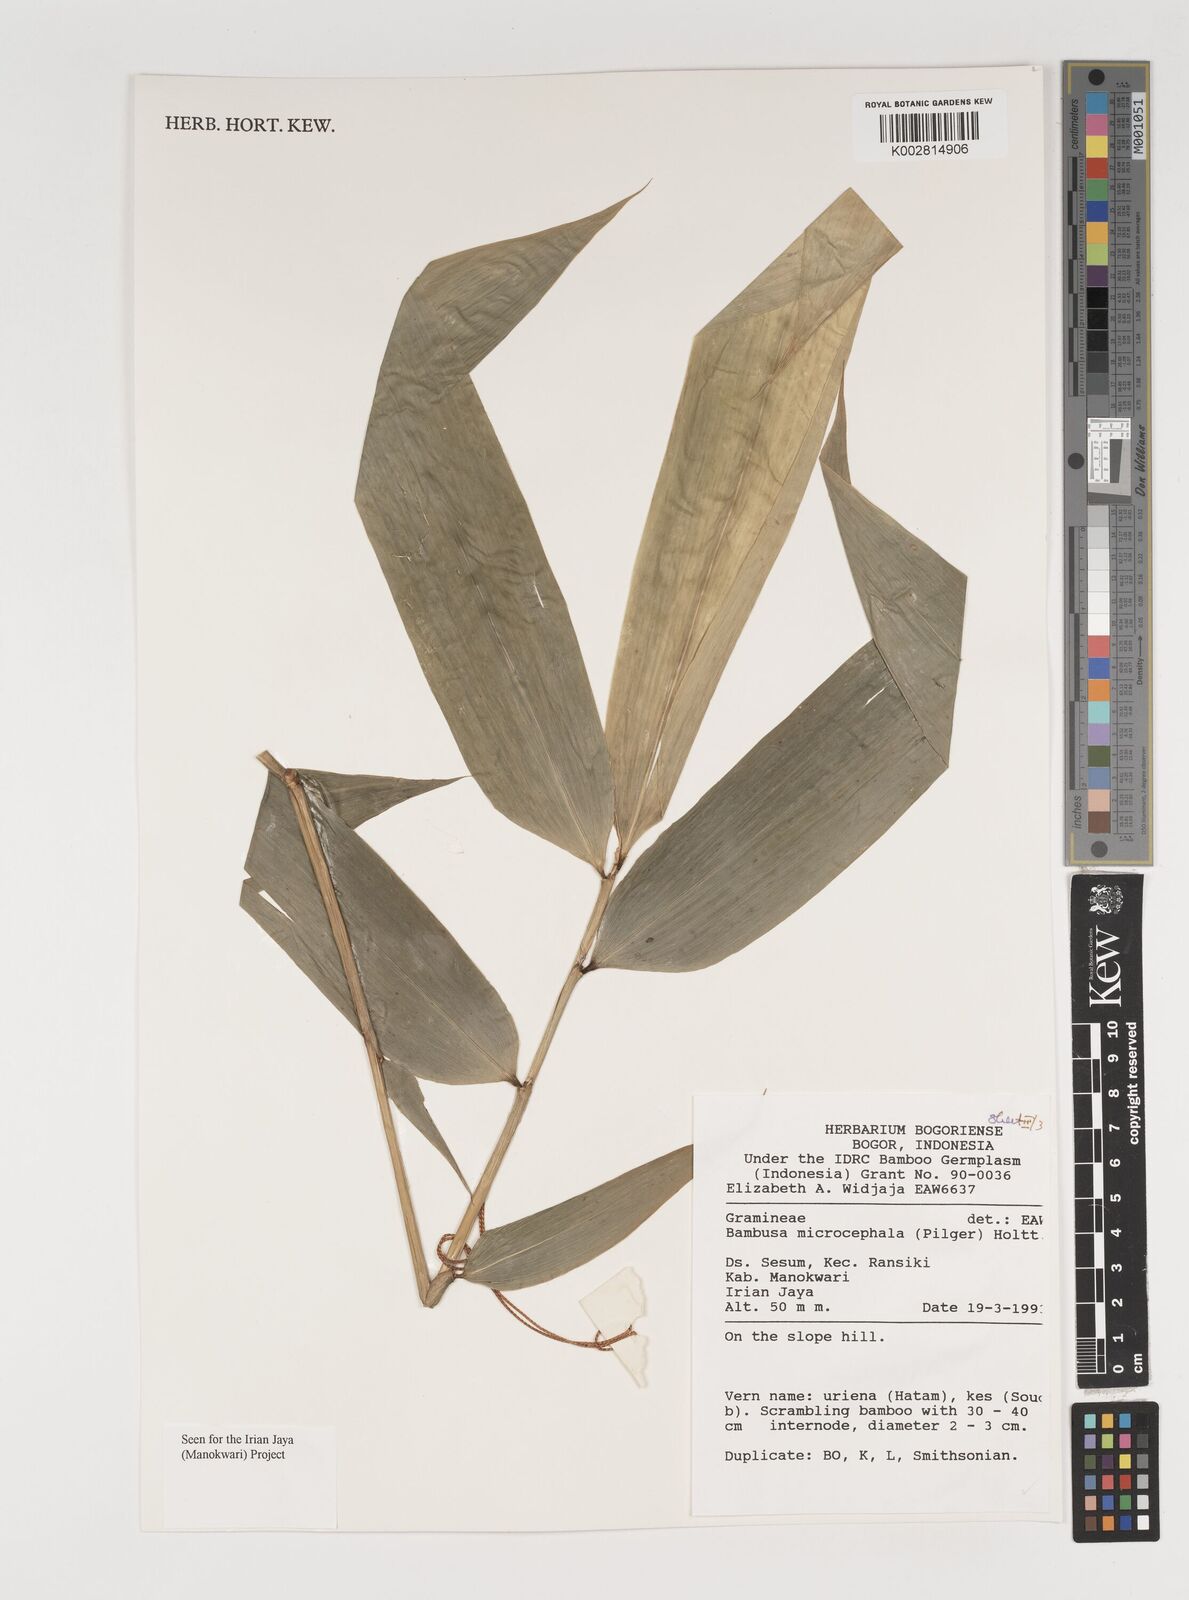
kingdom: Plantae
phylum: Tracheophyta
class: Liliopsida
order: Poales
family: Poaceae
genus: Fimbribambusa
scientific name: Fimbribambusa microcephala
